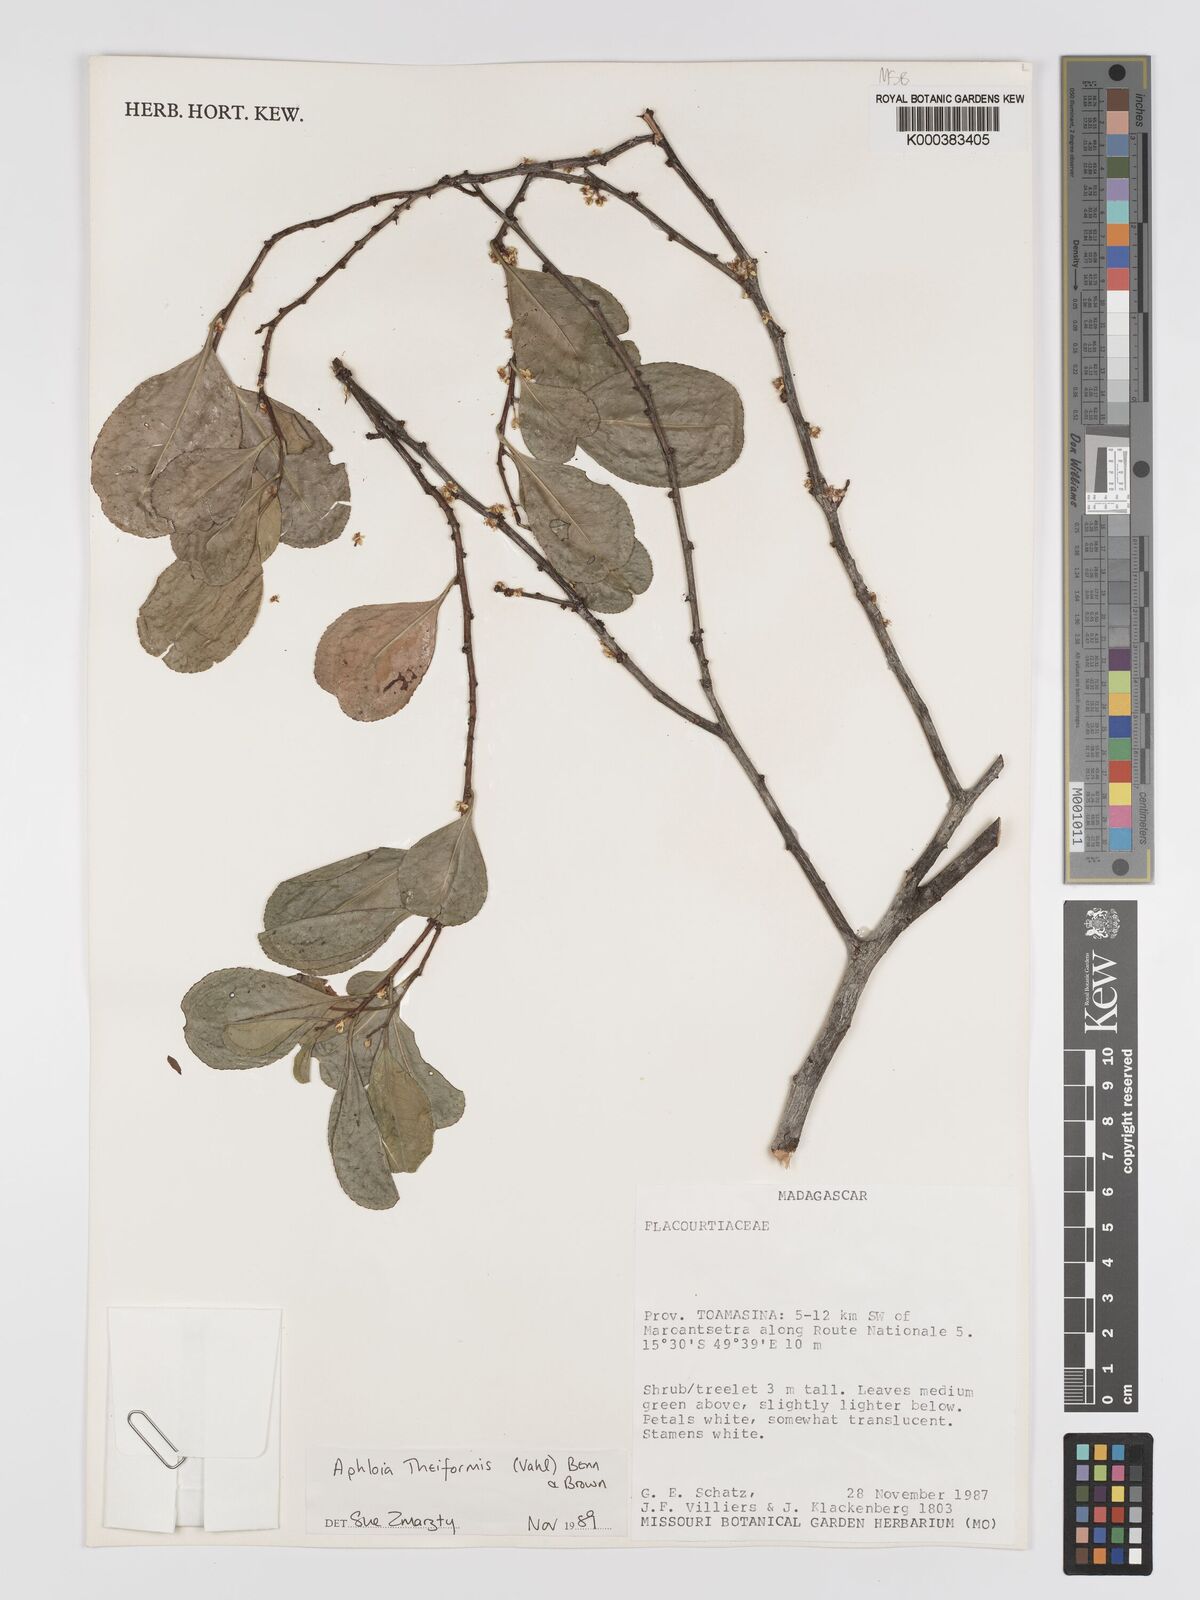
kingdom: Plantae
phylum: Tracheophyta
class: Magnoliopsida
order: Crossosomatales
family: Aphloiaceae
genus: Aphloia
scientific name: Aphloia theiformis
